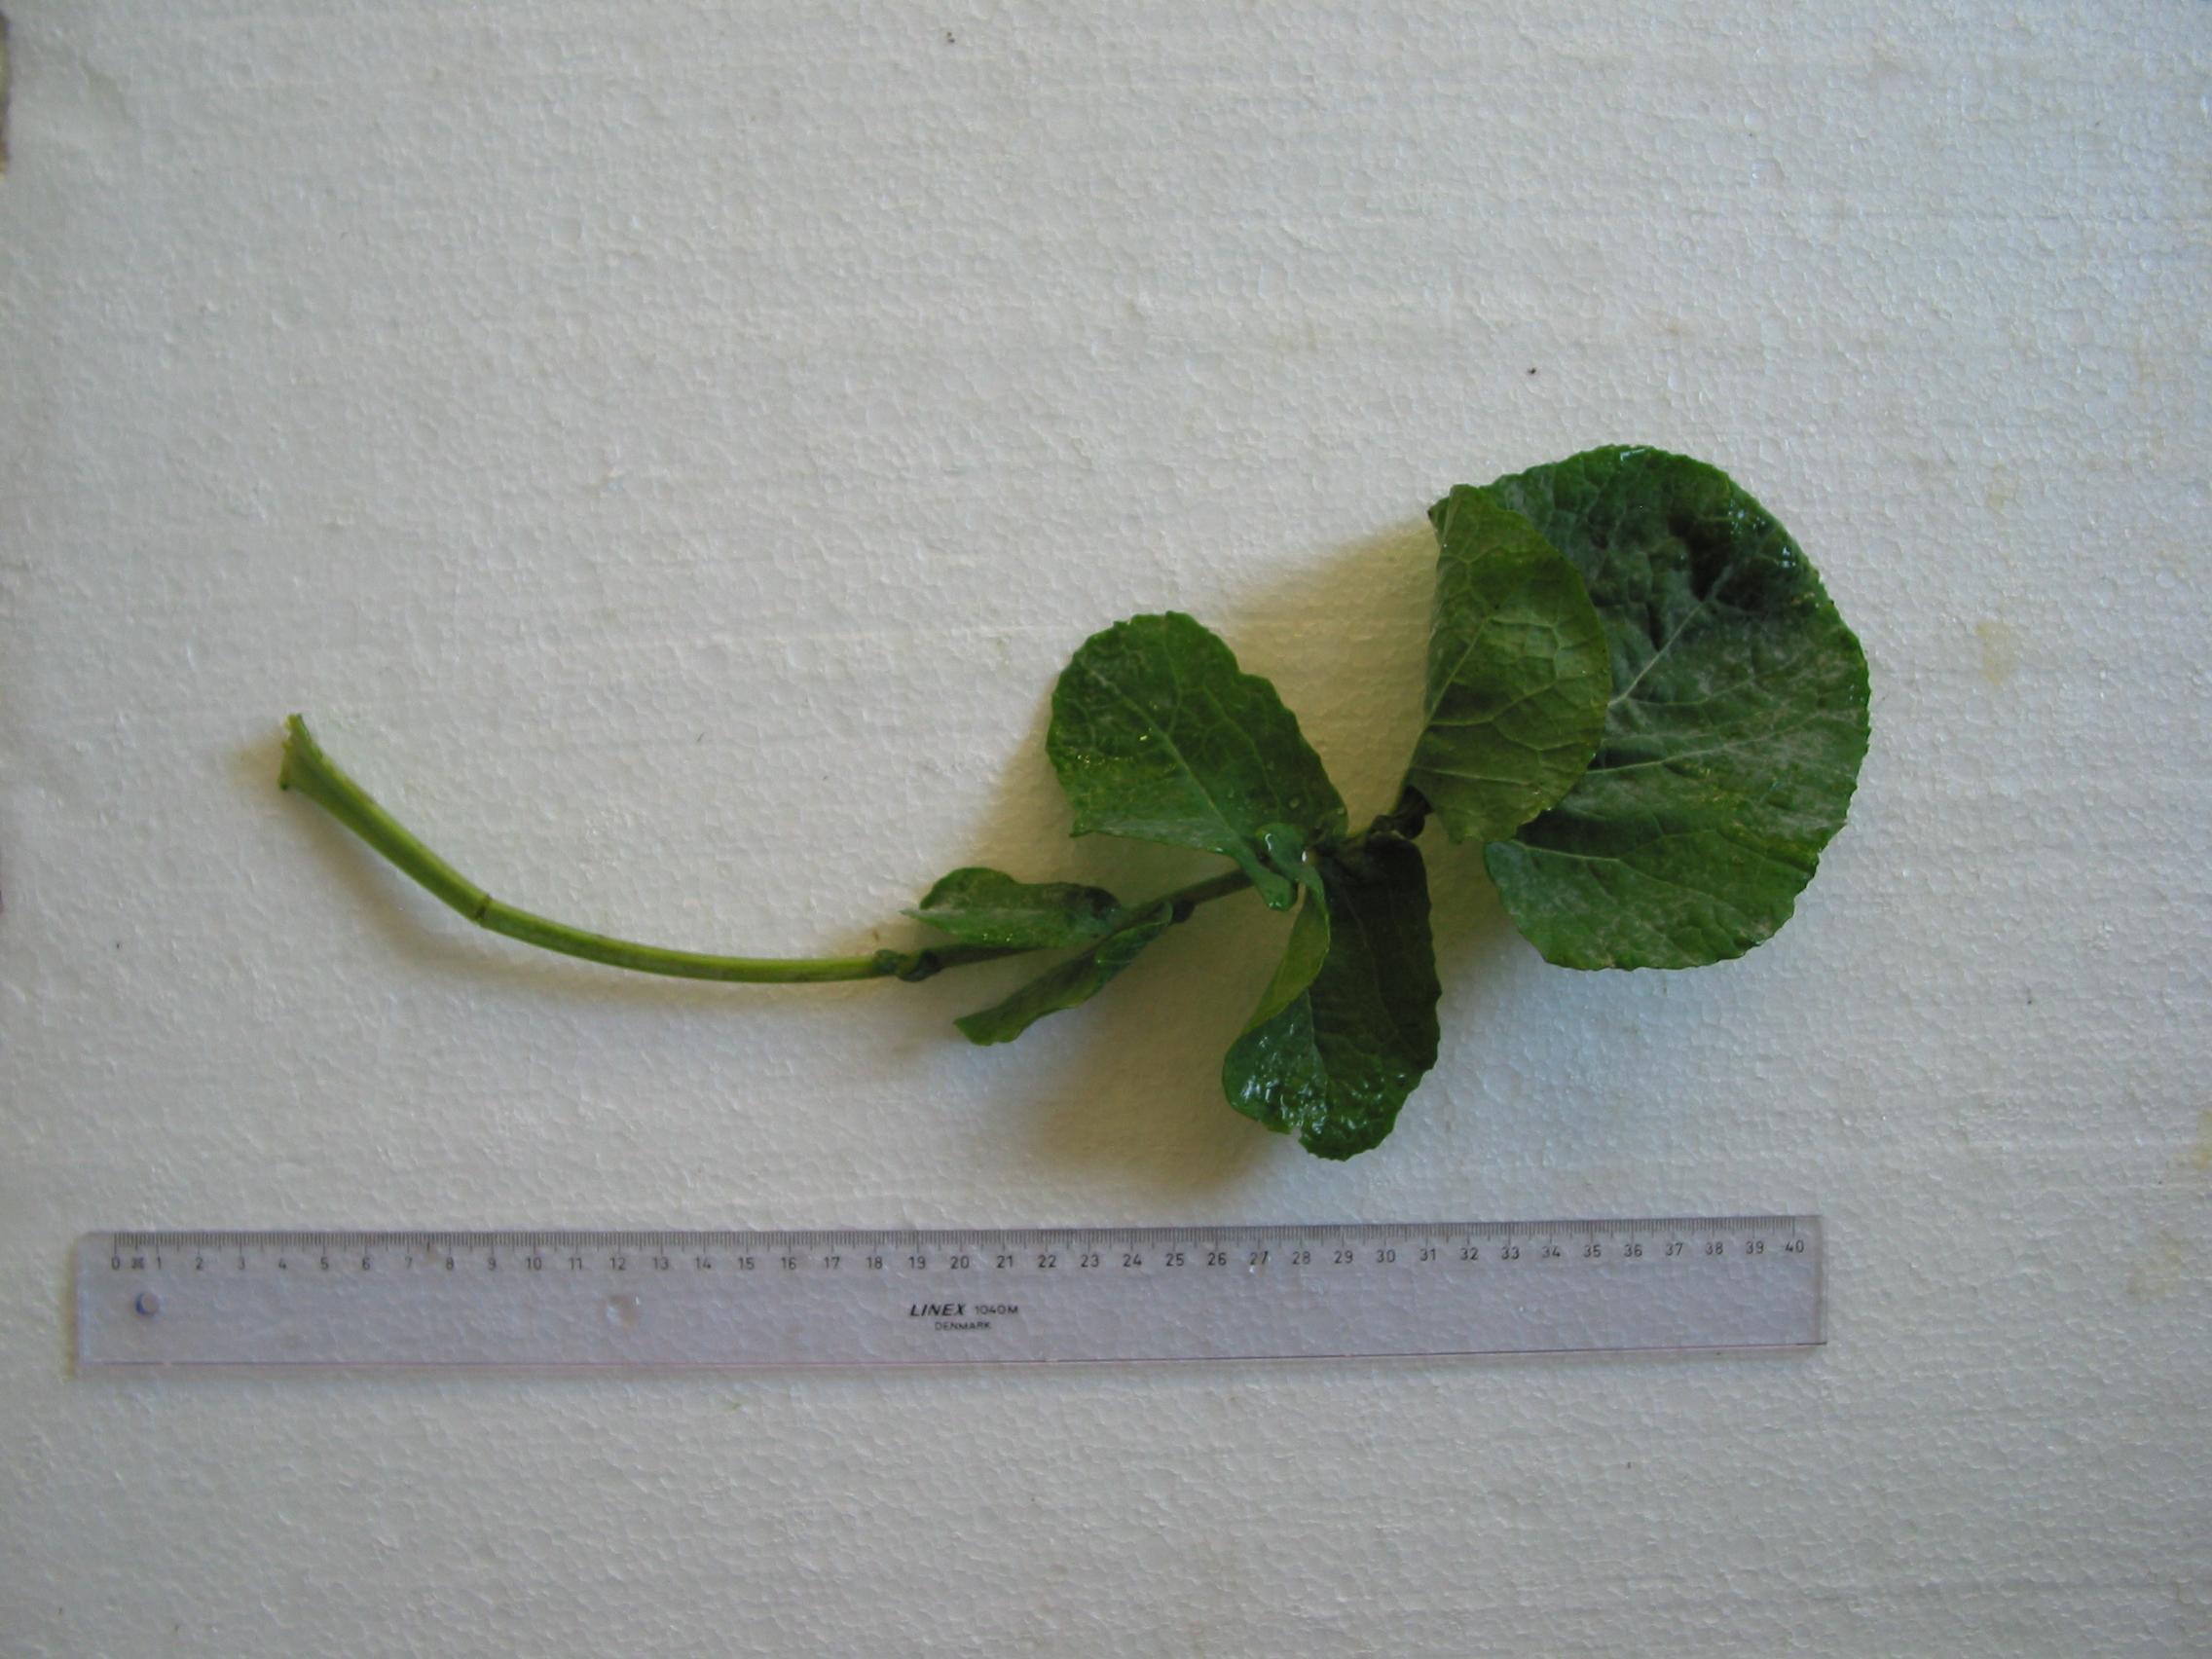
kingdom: Plantae
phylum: Tracheophyta
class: Magnoliopsida
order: Brassicales
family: Brassicaceae
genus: Brassica
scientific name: Brassica napus
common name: Rape
